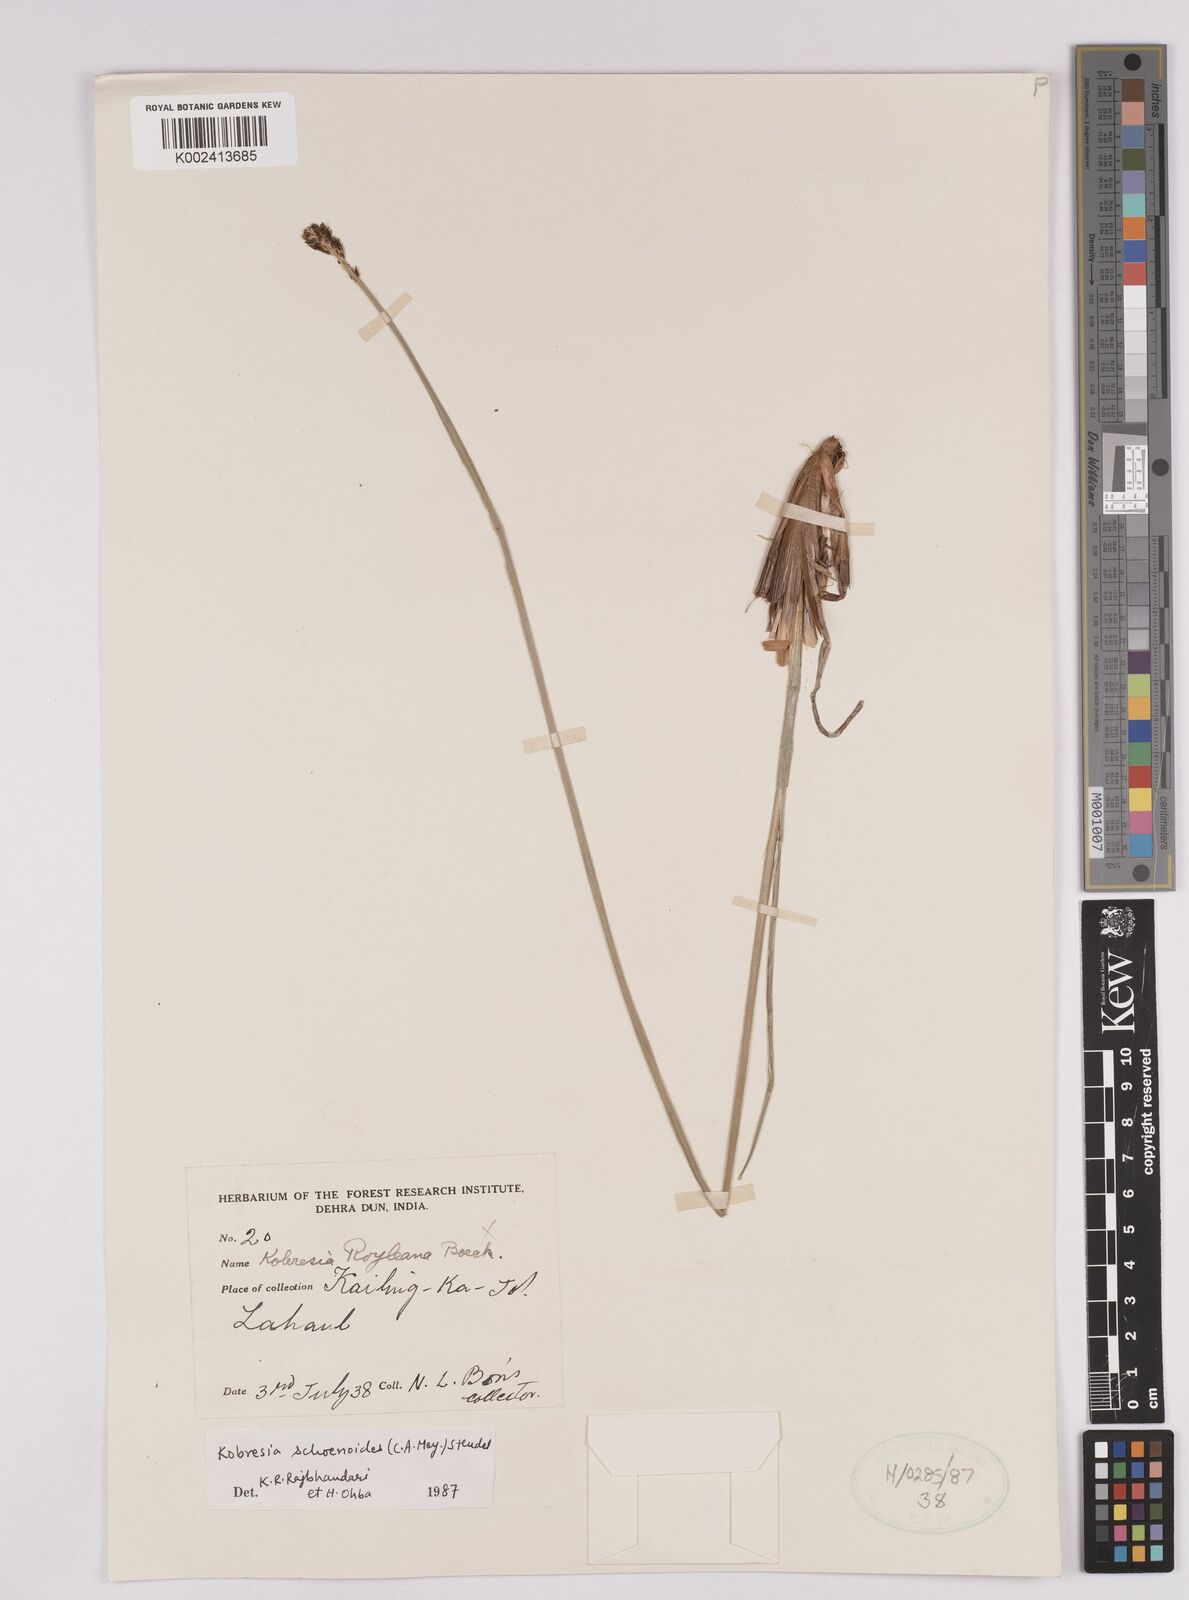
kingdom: Plantae
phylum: Tracheophyta
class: Liliopsida
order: Poales
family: Cyperaceae
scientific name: Cyperaceae
